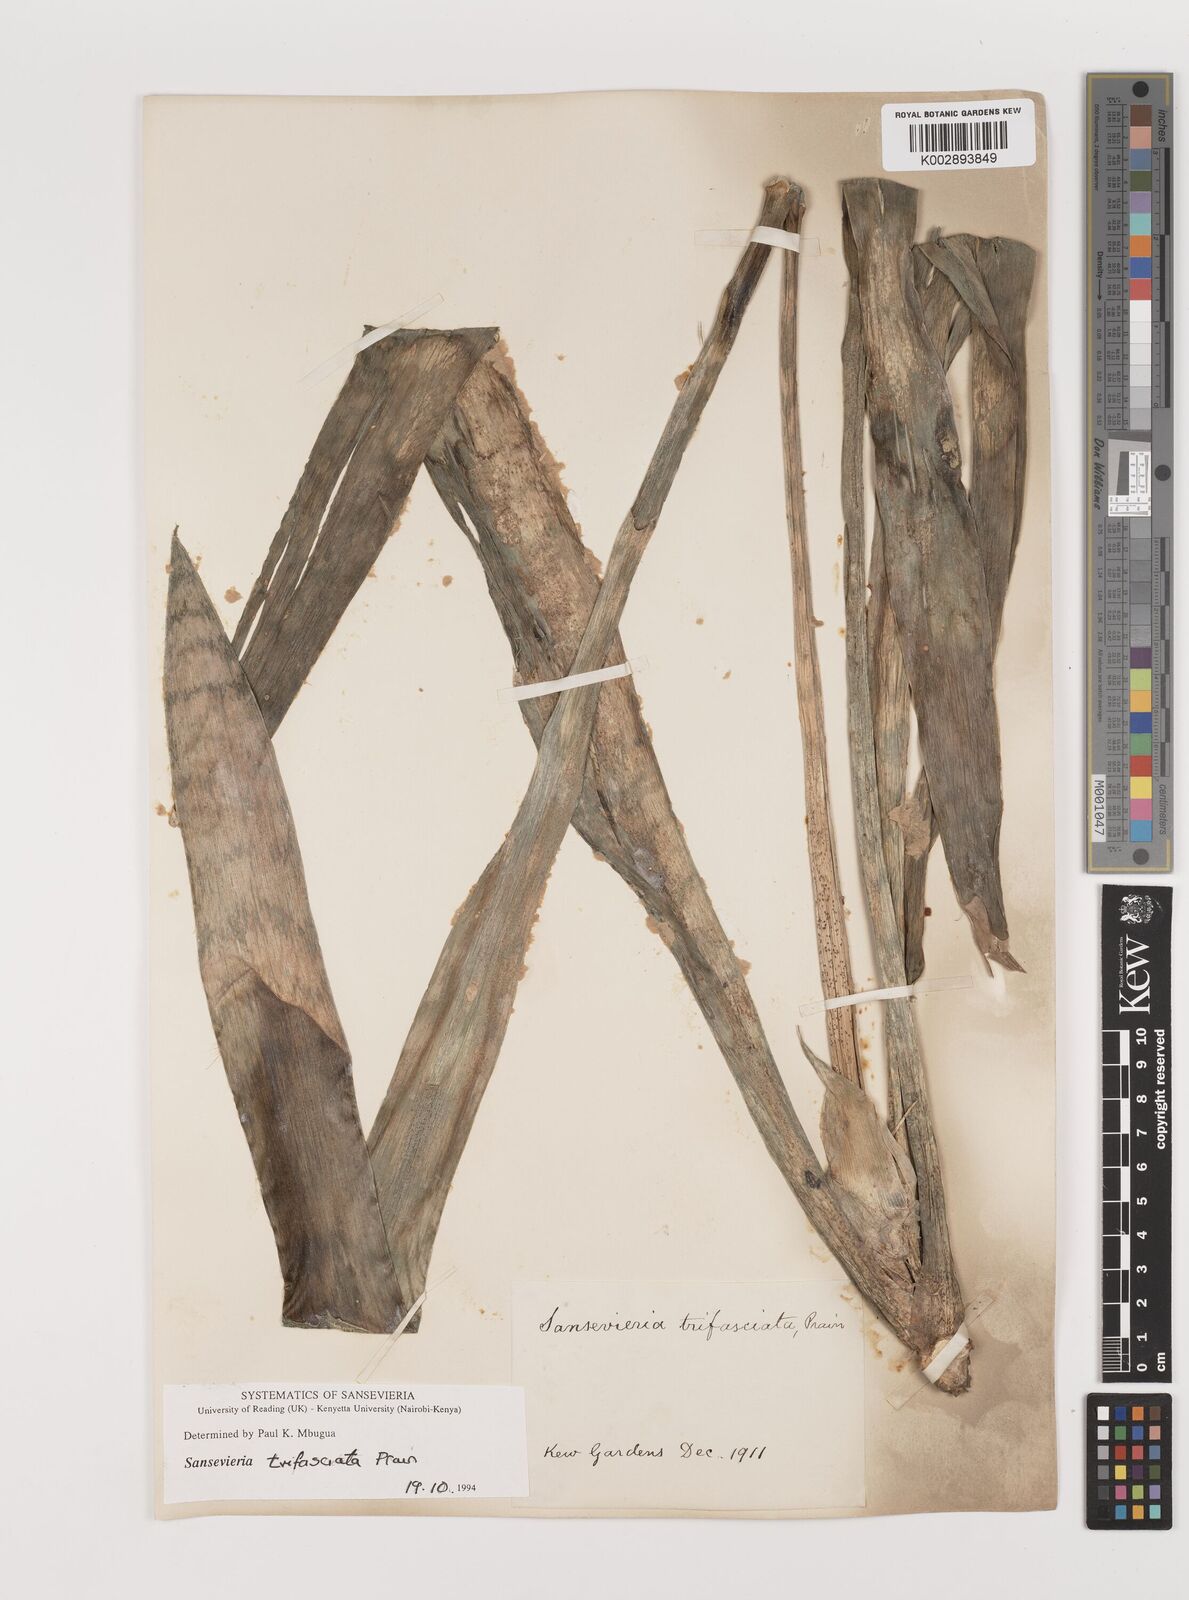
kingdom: Plantae
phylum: Tracheophyta
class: Liliopsida
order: Asparagales
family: Asparagaceae
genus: Dracaena
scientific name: Dracaena trifasciata
